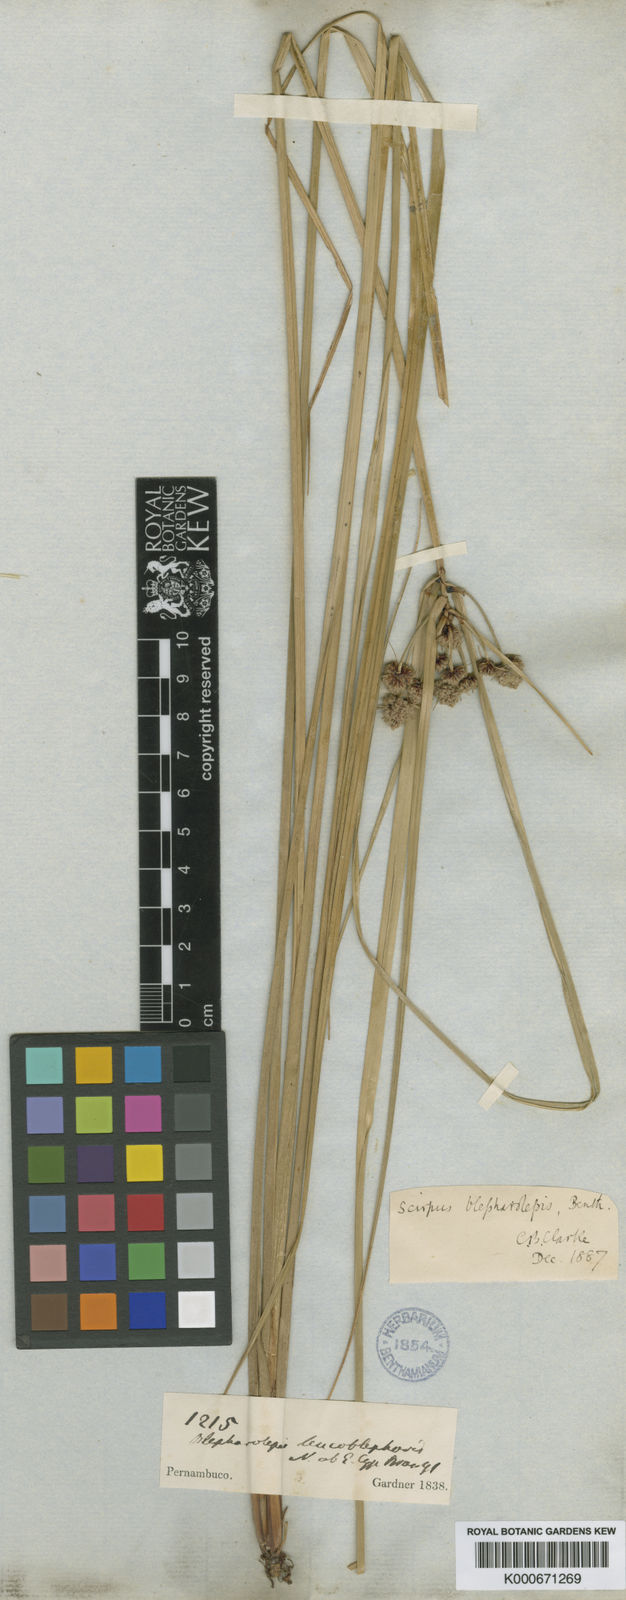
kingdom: Plantae
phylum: Tracheophyta
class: Liliopsida
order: Poales
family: Cyperaceae
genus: Scirpoides
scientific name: Scirpoides
